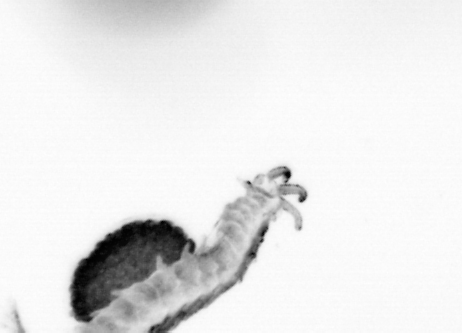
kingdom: Animalia
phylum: Annelida
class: Polychaeta
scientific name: Polychaeta
